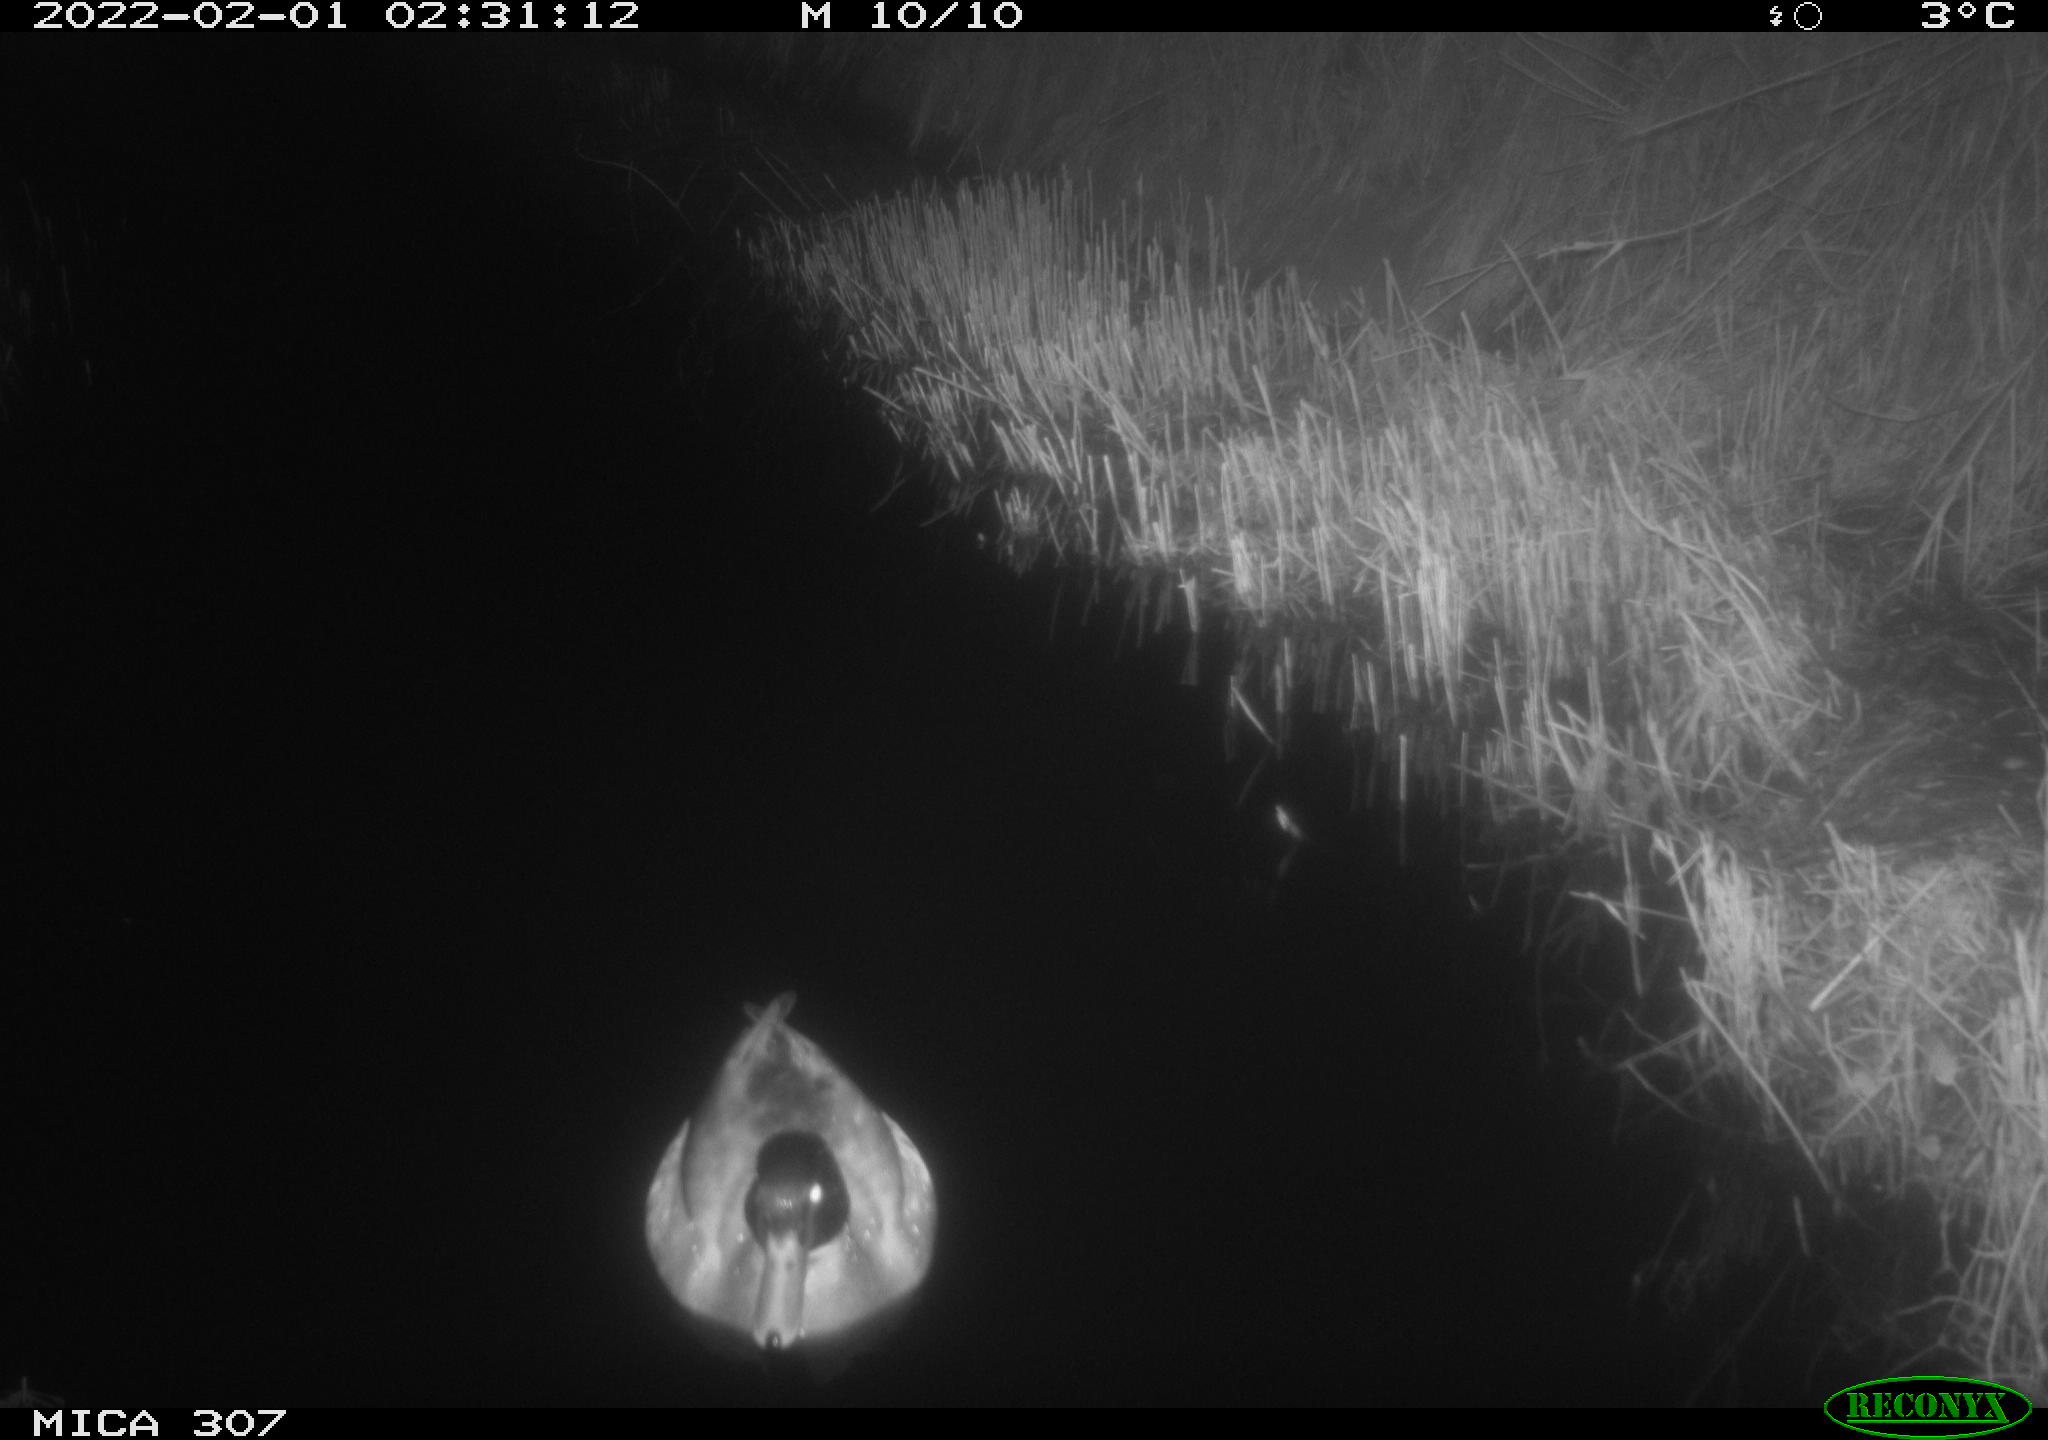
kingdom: Animalia
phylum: Chordata
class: Aves
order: Anseriformes
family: Anatidae
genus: Anas
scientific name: Anas
